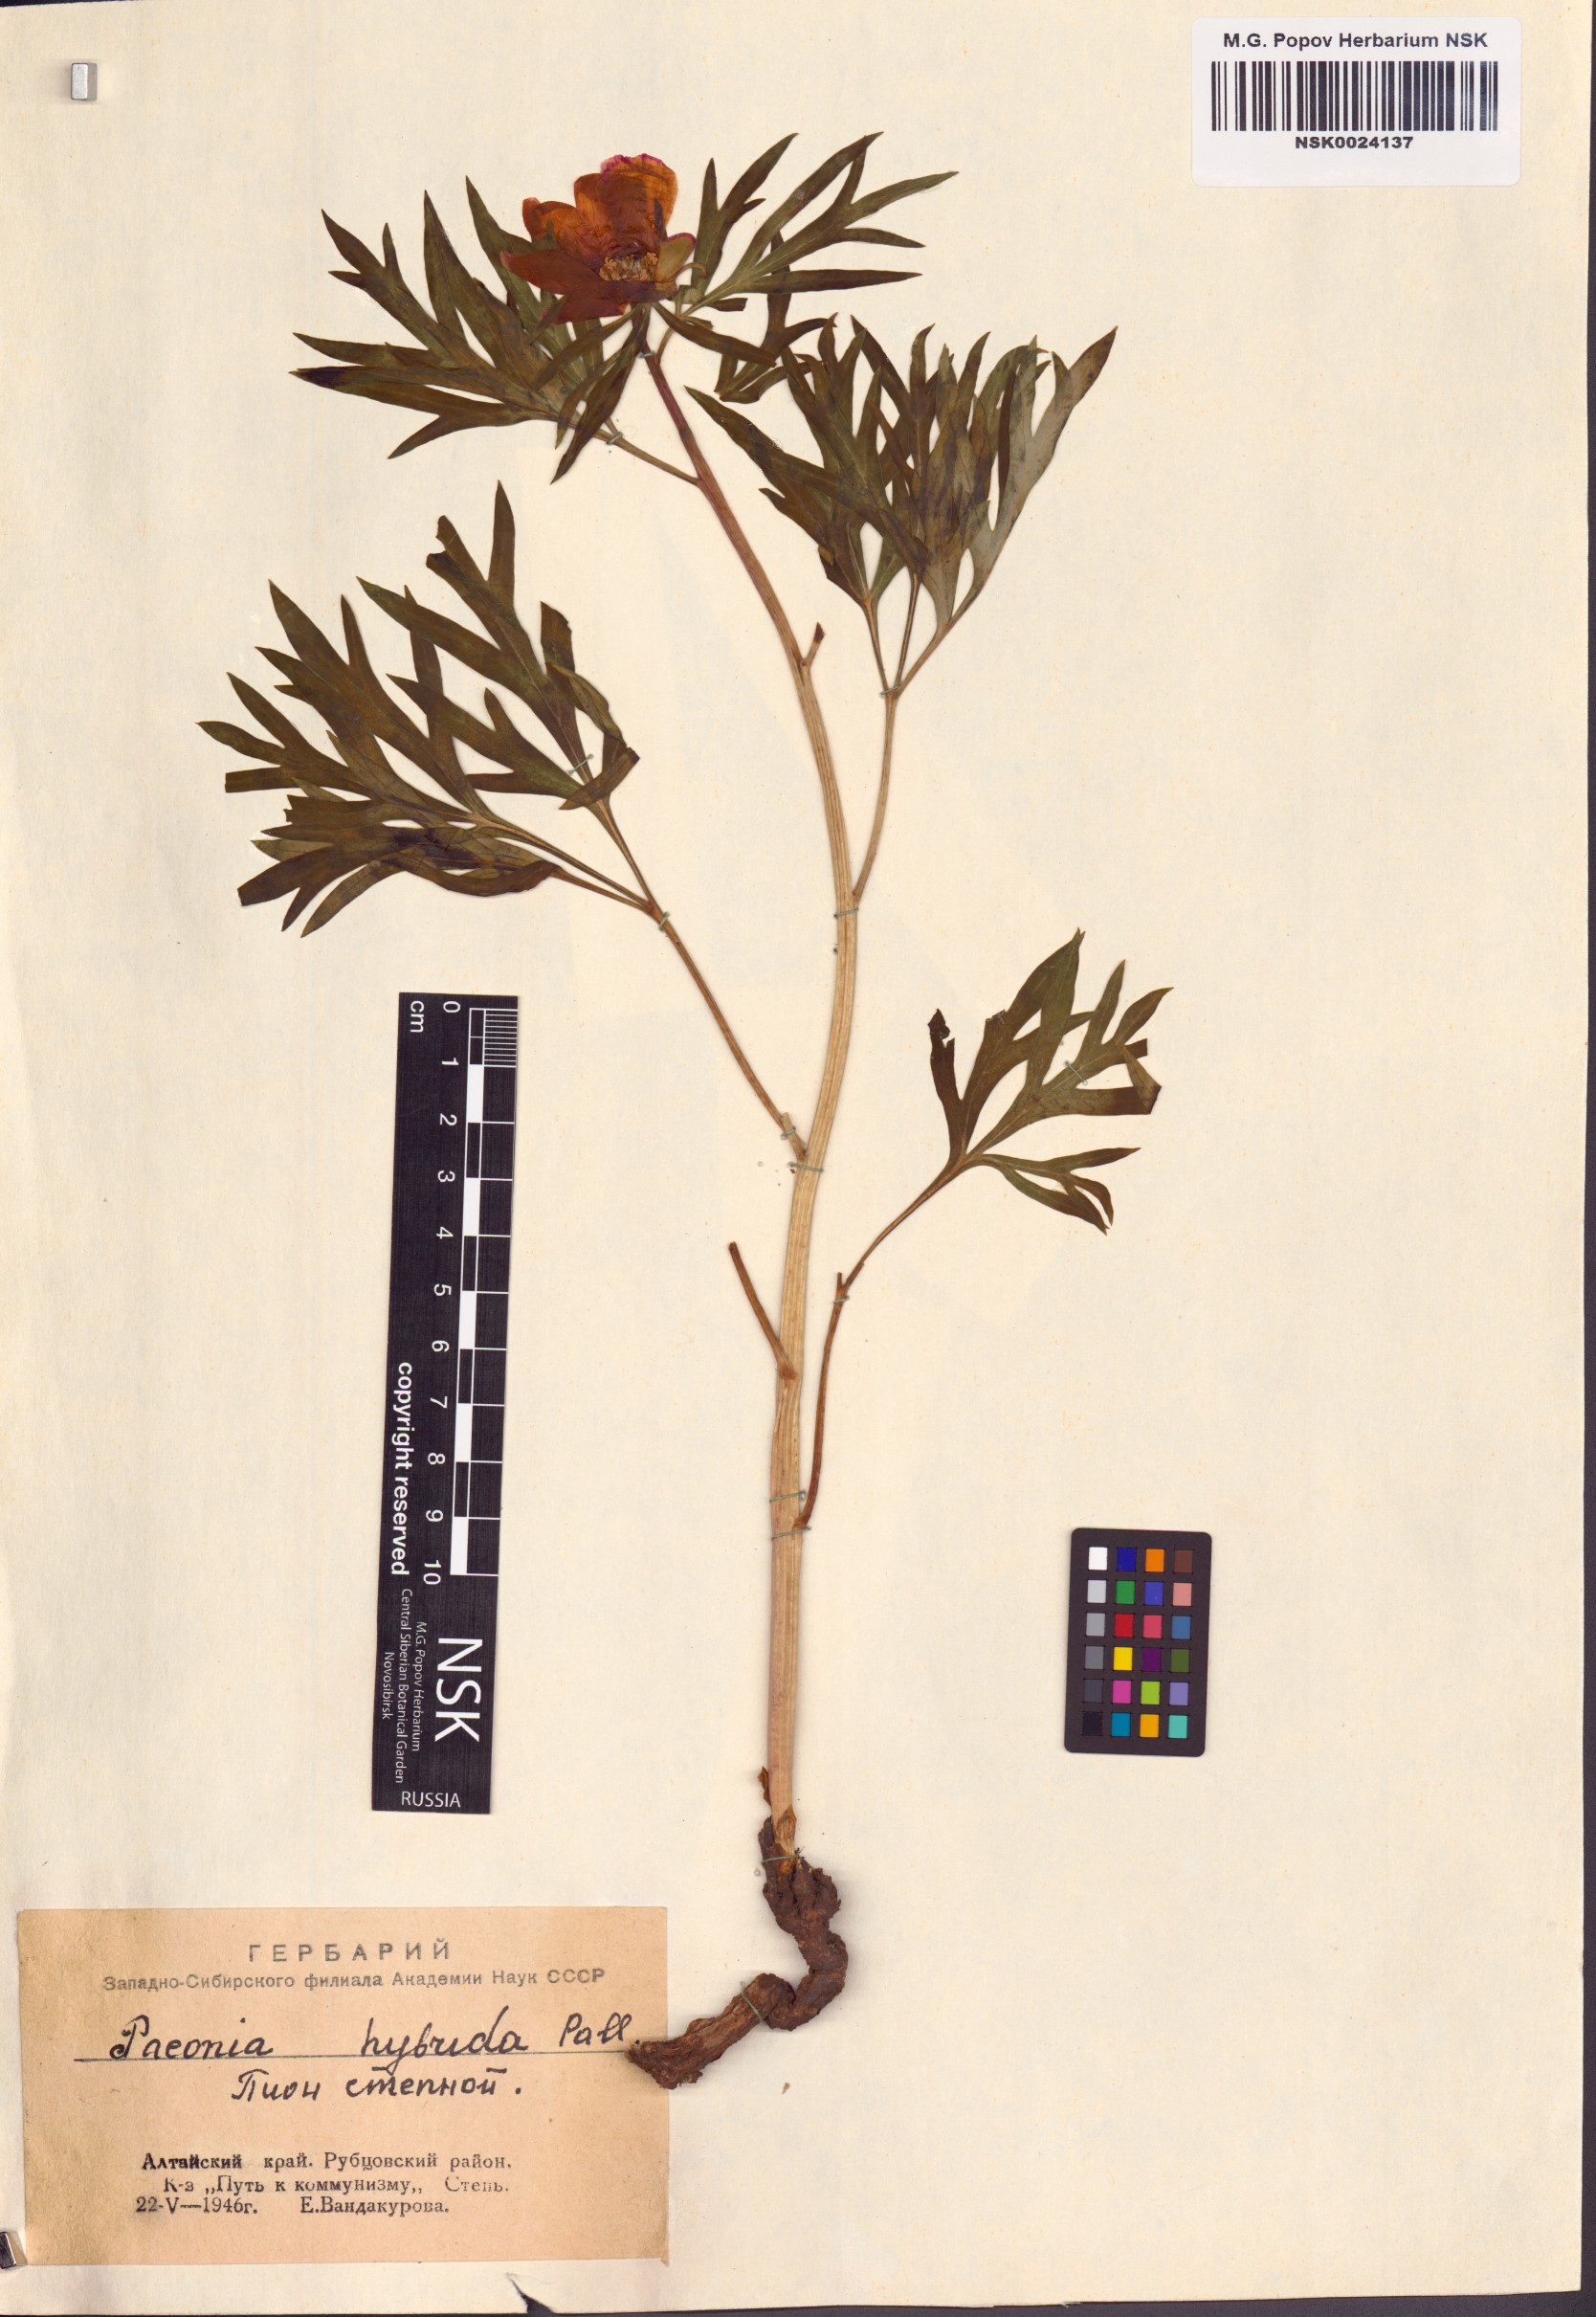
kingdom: Plantae
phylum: Tracheophyta
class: Magnoliopsida
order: Saxifragales
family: Paeoniaceae
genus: Paeonia
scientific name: Paeonia
